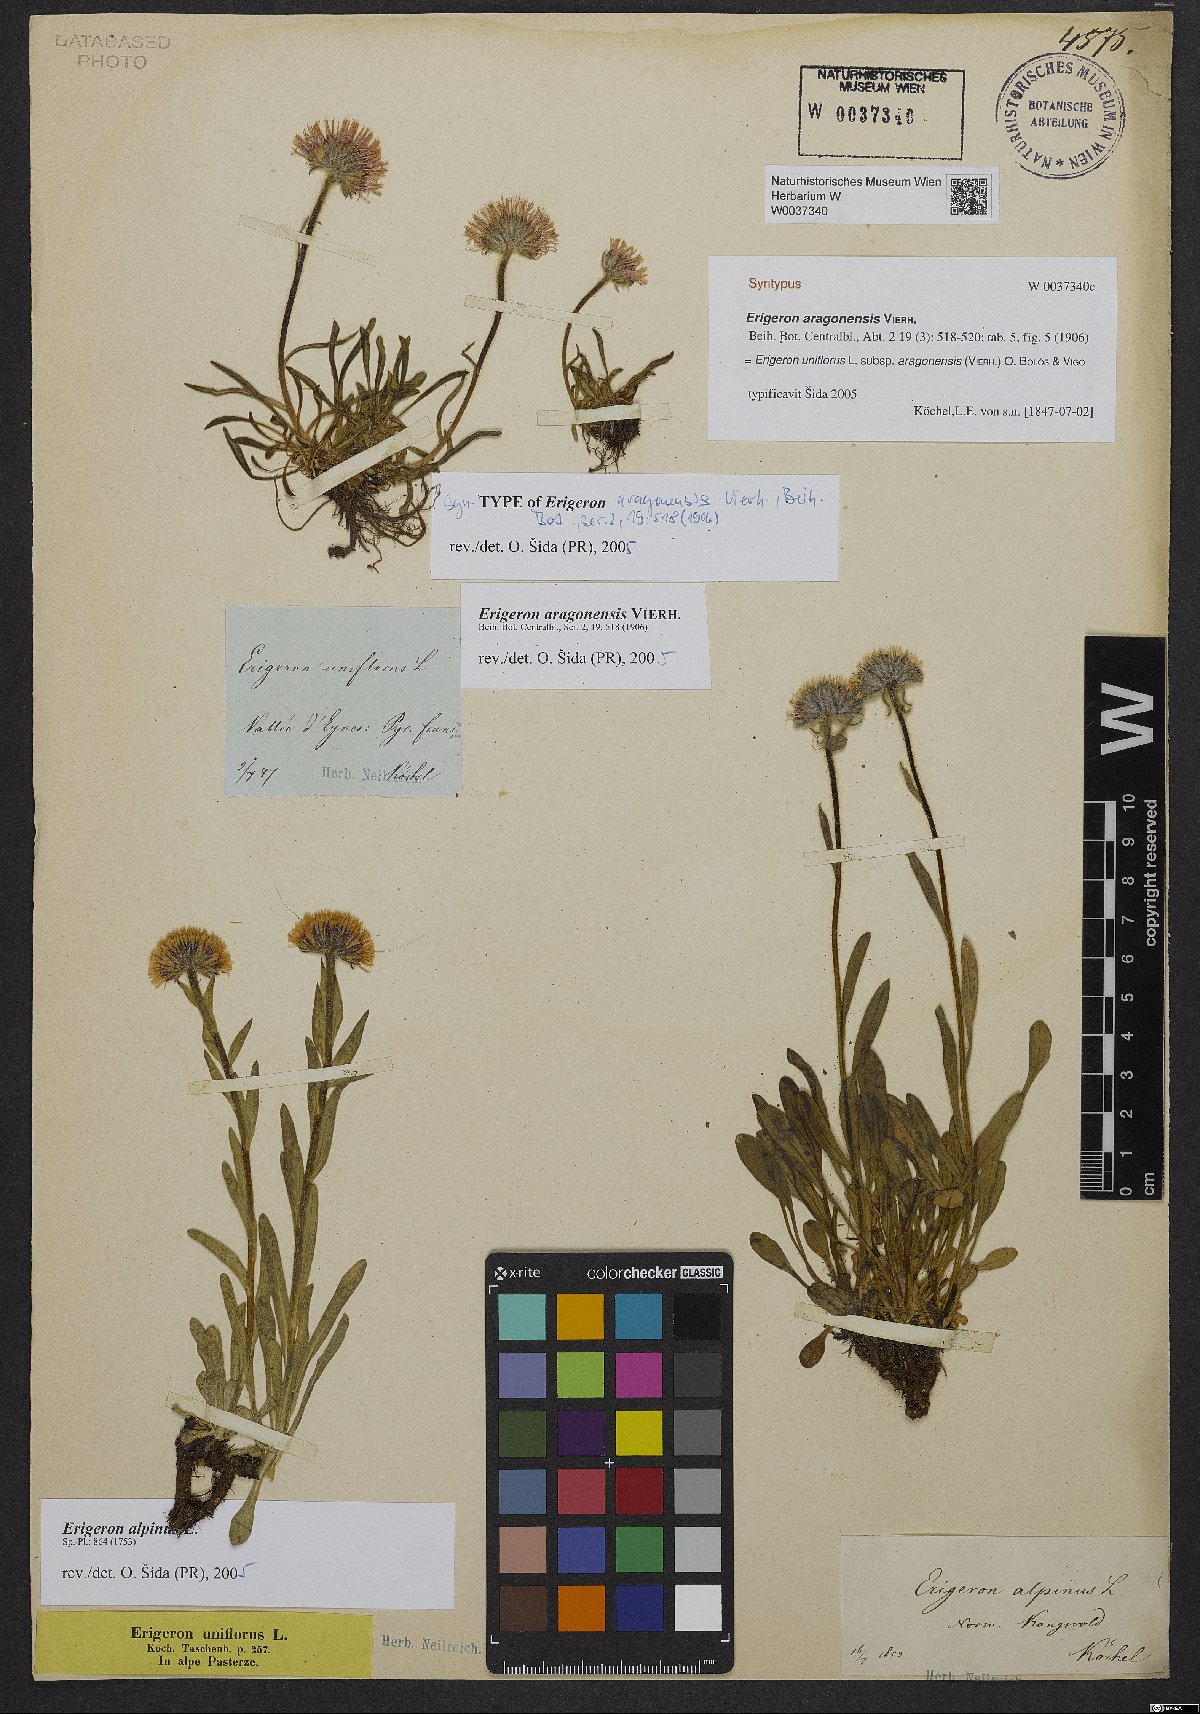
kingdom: Plantae
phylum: Tracheophyta
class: Magnoliopsida
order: Asterales
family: Asteraceae
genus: Erigeron
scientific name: Erigeron aragonensis
